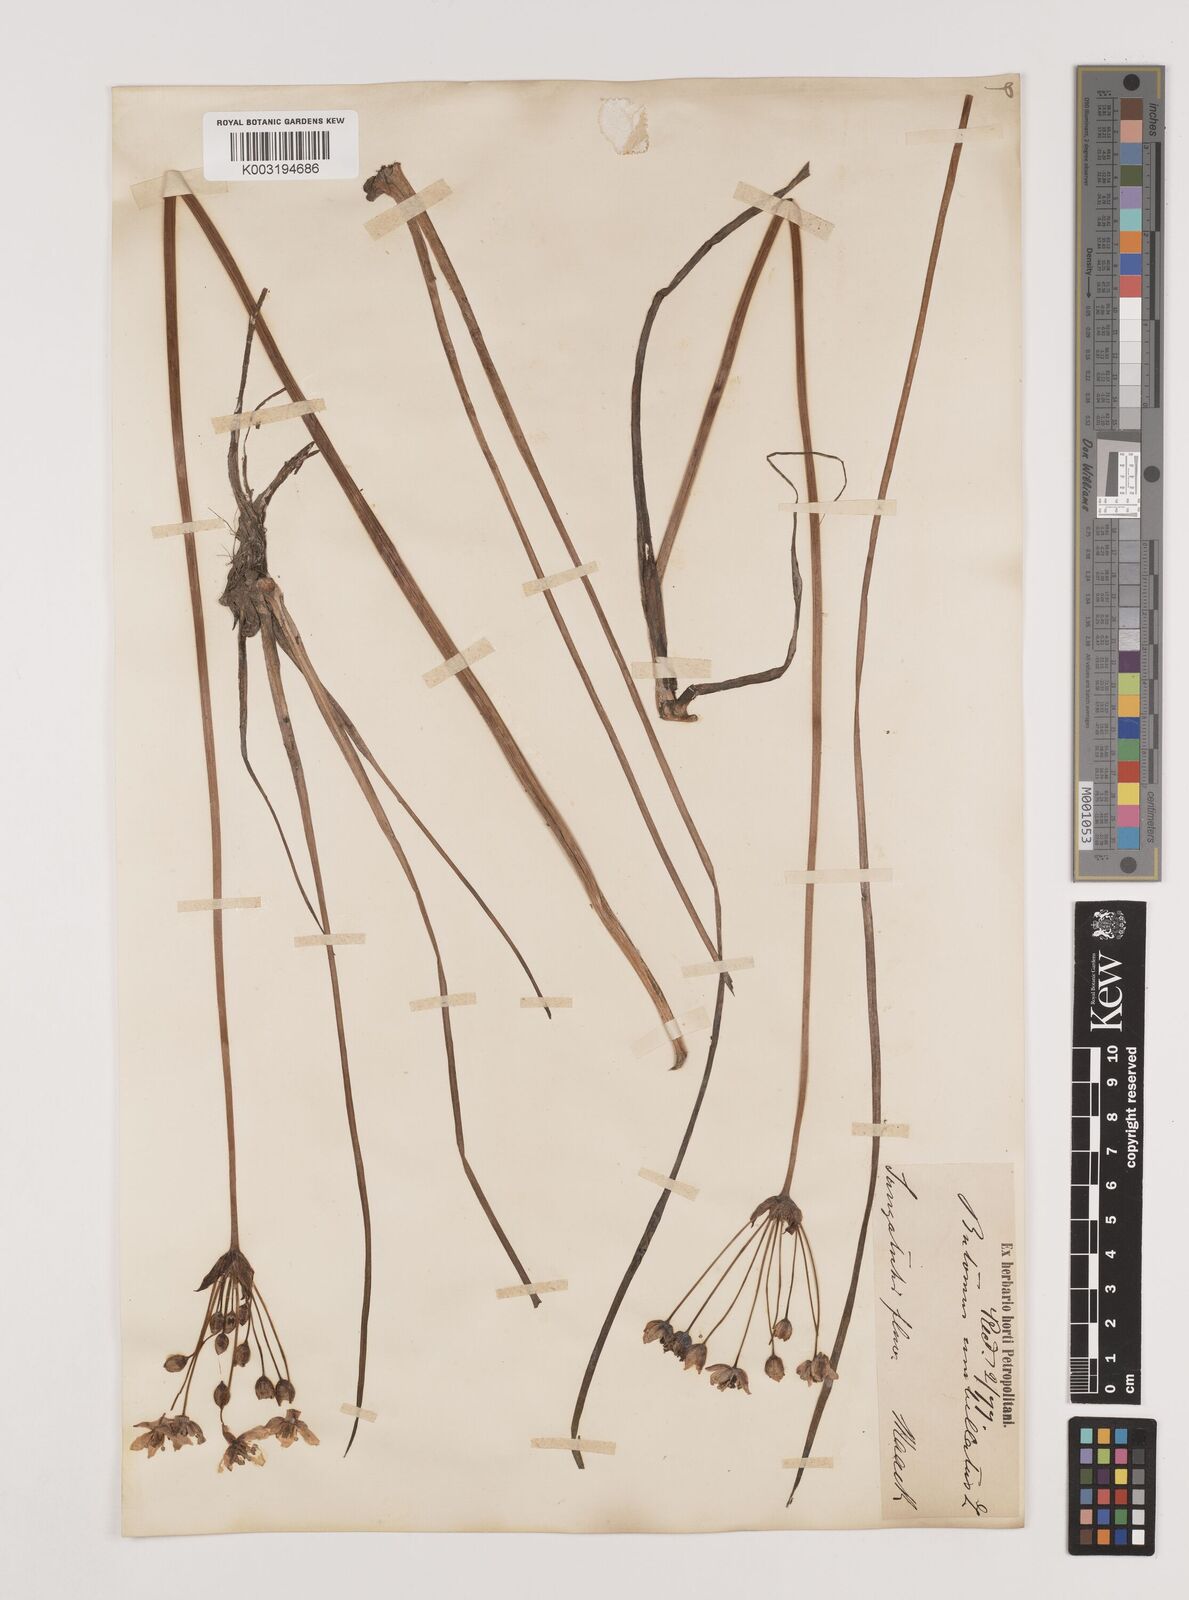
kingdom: Plantae
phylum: Tracheophyta
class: Liliopsida
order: Alismatales
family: Butomaceae
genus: Butomus
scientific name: Butomus umbellatus
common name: Flowering-rush
